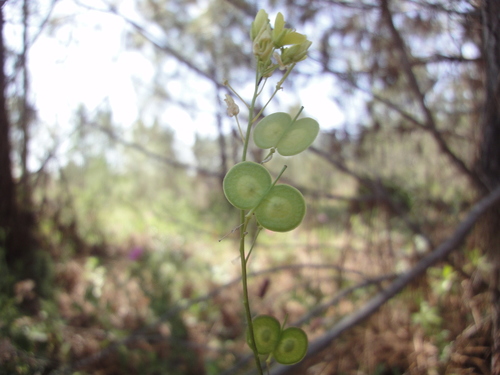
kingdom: Plantae
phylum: Tracheophyta
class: Magnoliopsida
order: Brassicales
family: Brassicaceae
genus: Biscutella
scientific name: Biscutella sempervirens
